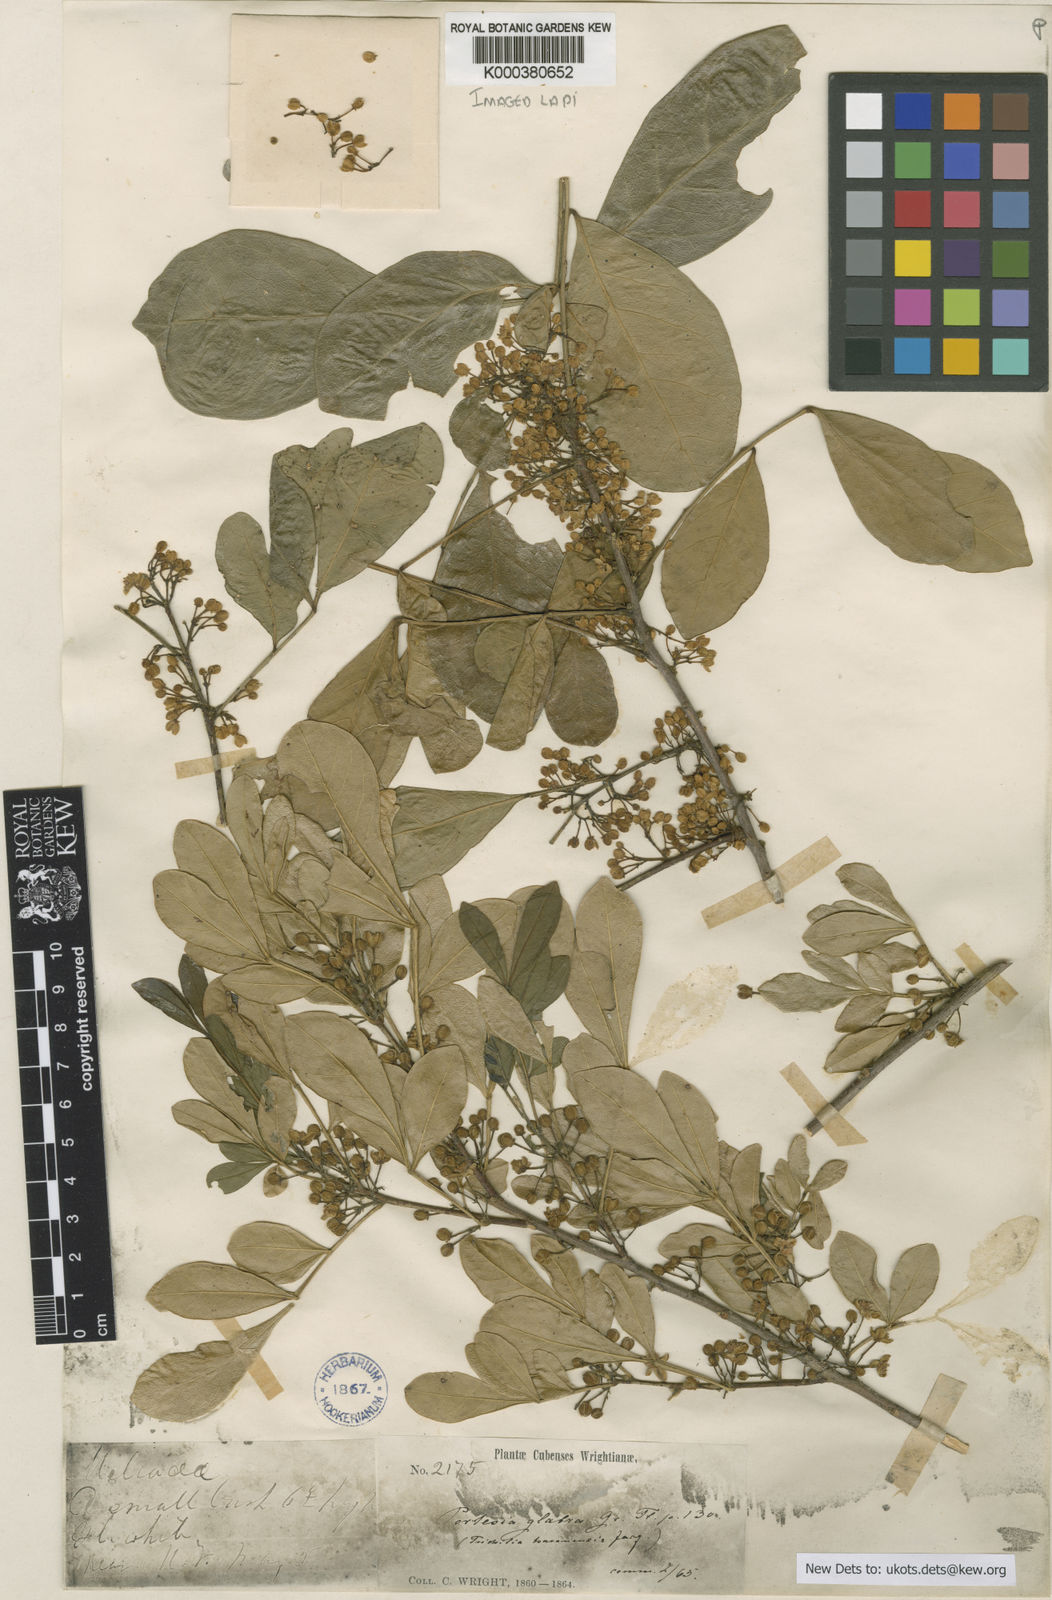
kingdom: Plantae
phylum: Tracheophyta
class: Magnoliopsida
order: Sapindales
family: Meliaceae
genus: Trichilia
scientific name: Trichilia havanensis
